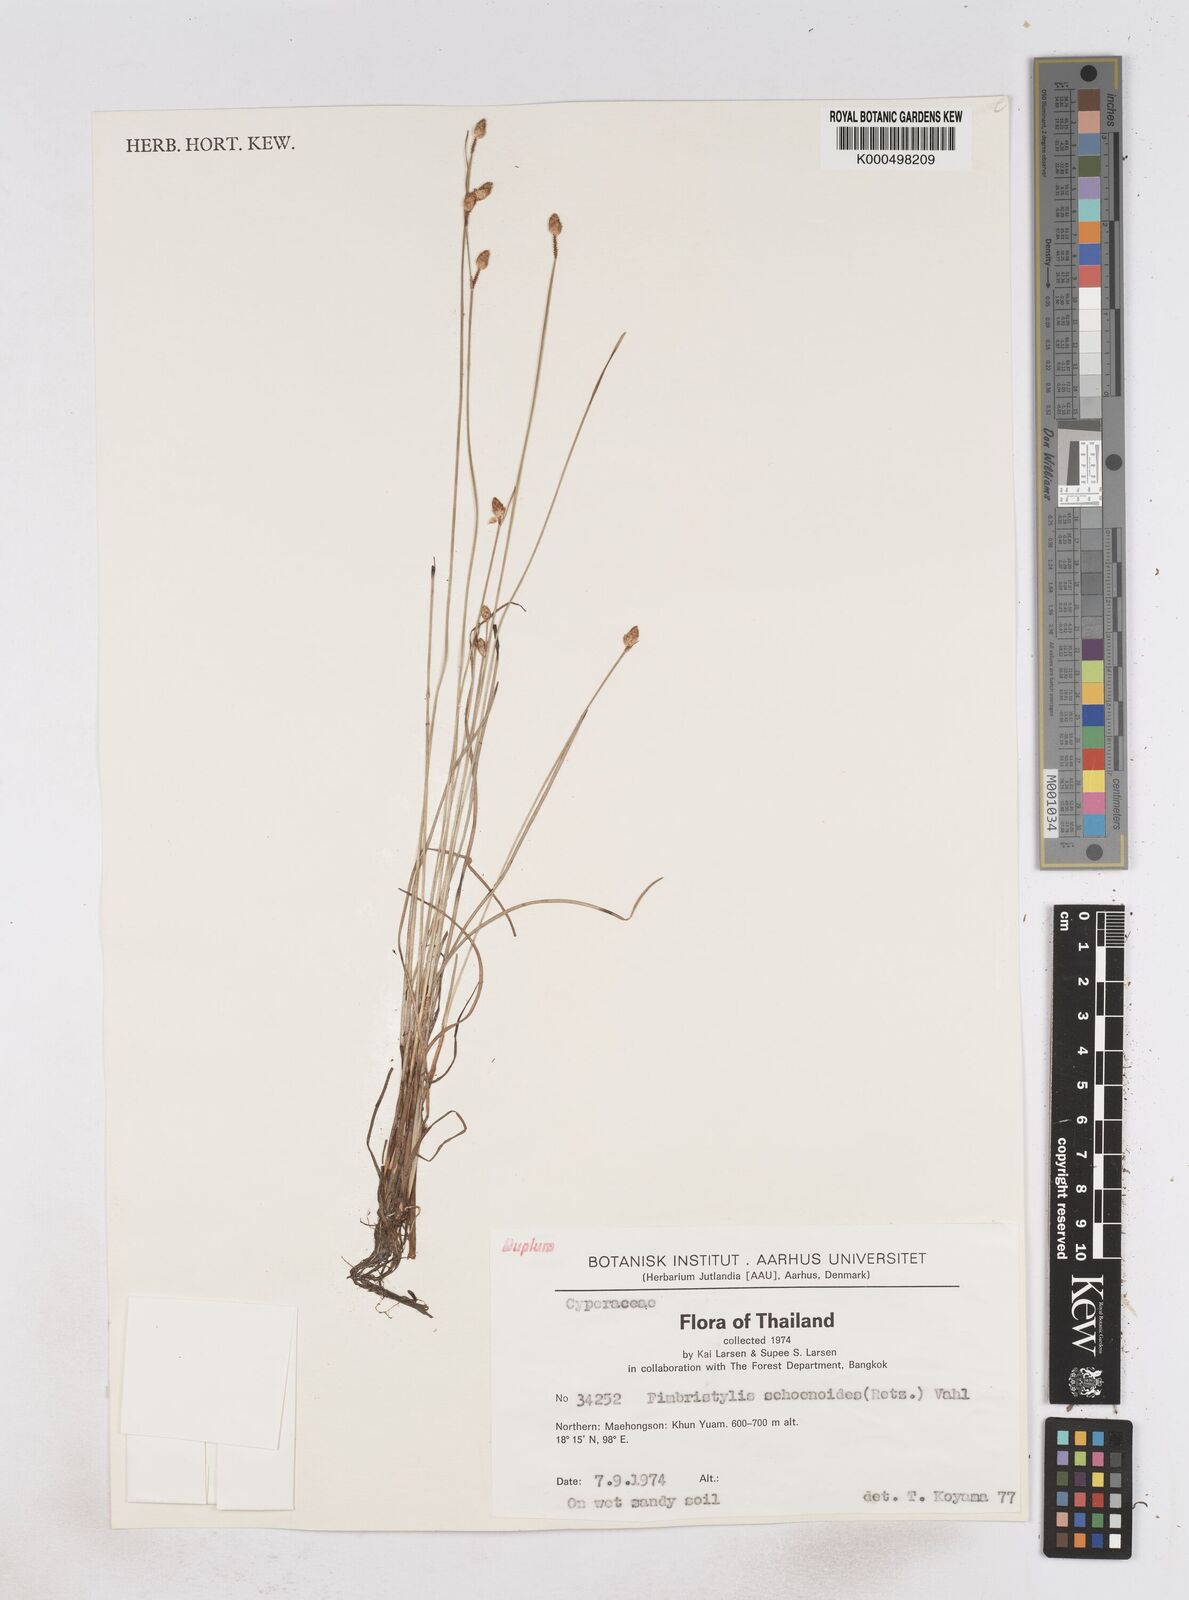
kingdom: Plantae
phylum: Tracheophyta
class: Liliopsida
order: Poales
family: Cyperaceae
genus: Fimbristylis
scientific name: Fimbristylis schoenoides
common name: Ditch fimbry
